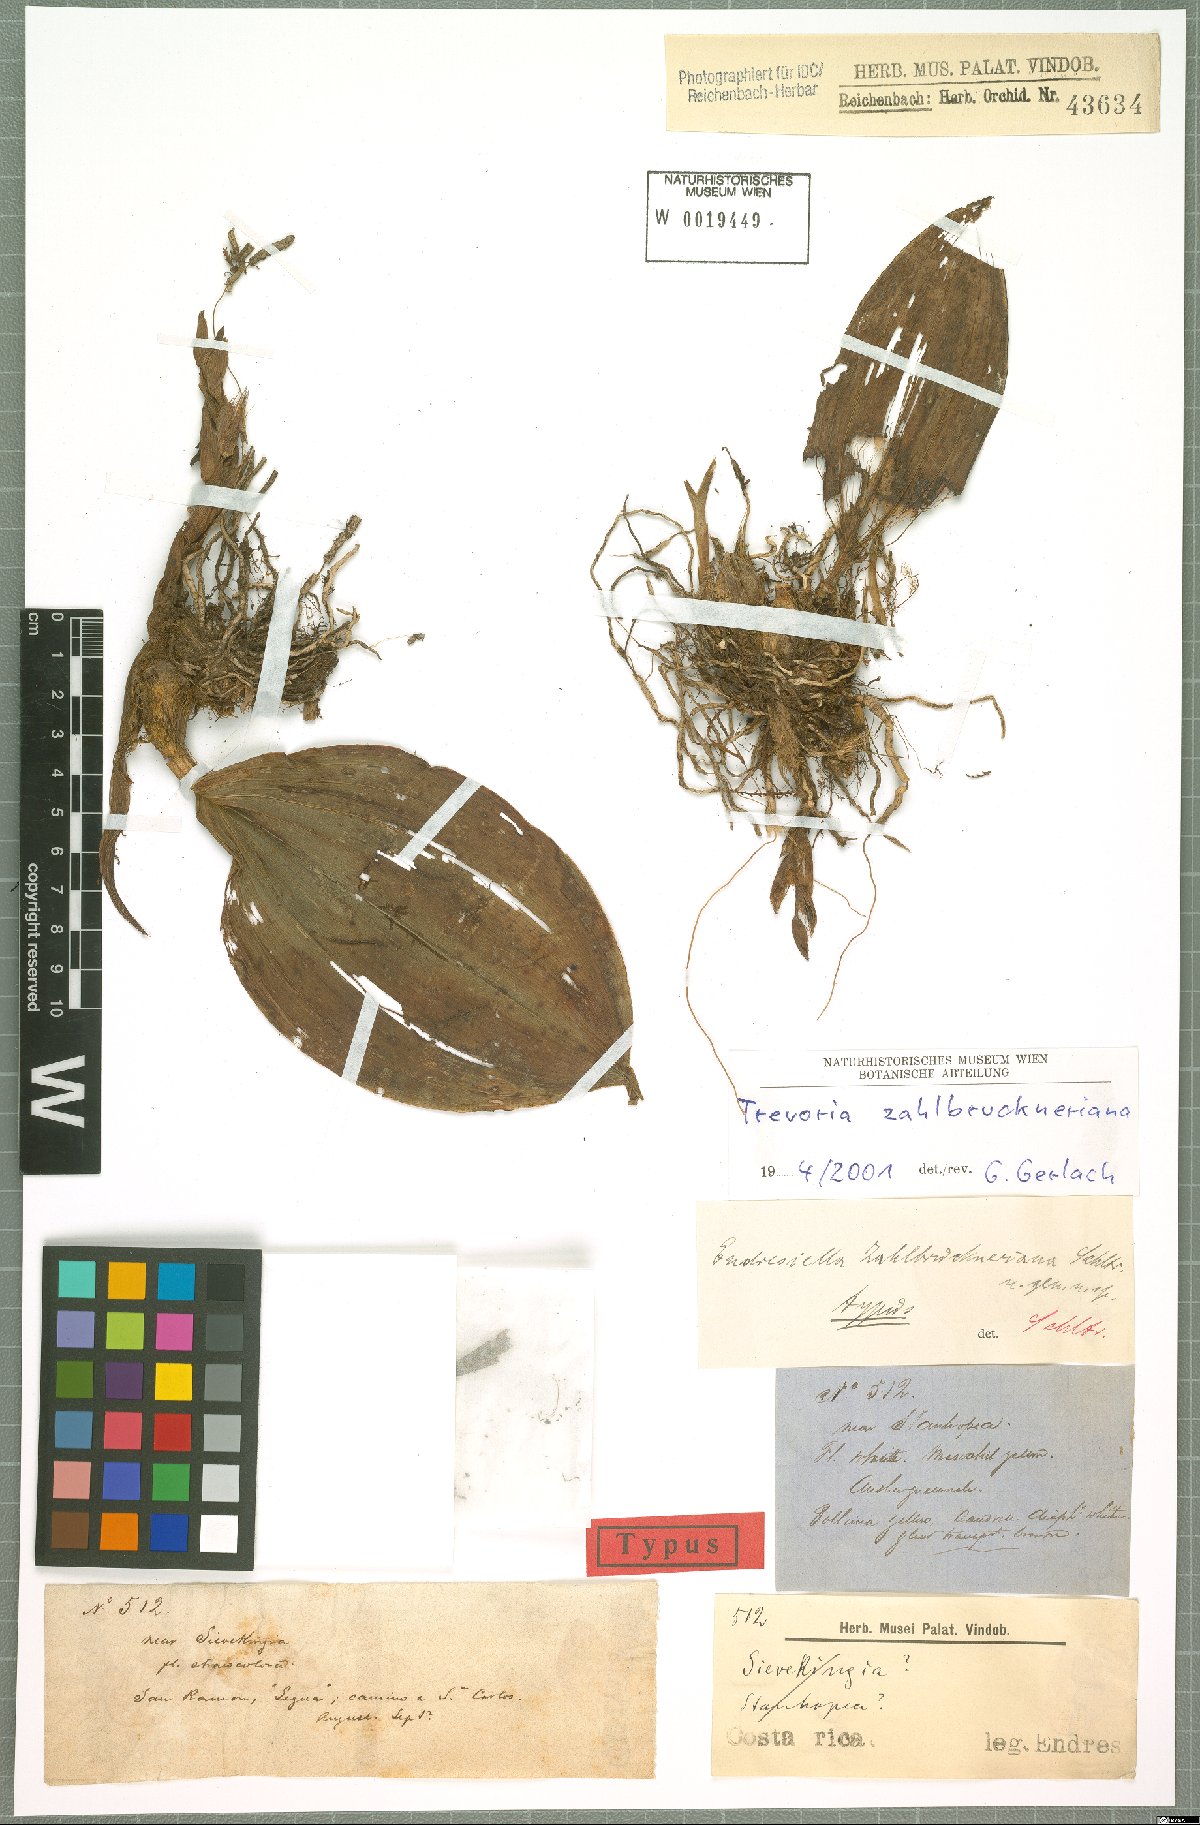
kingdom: Plantae
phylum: Tracheophyta
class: Liliopsida
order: Asparagales
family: Orchidaceae
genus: Trevoria
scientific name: Trevoria zahlbruckneriana
